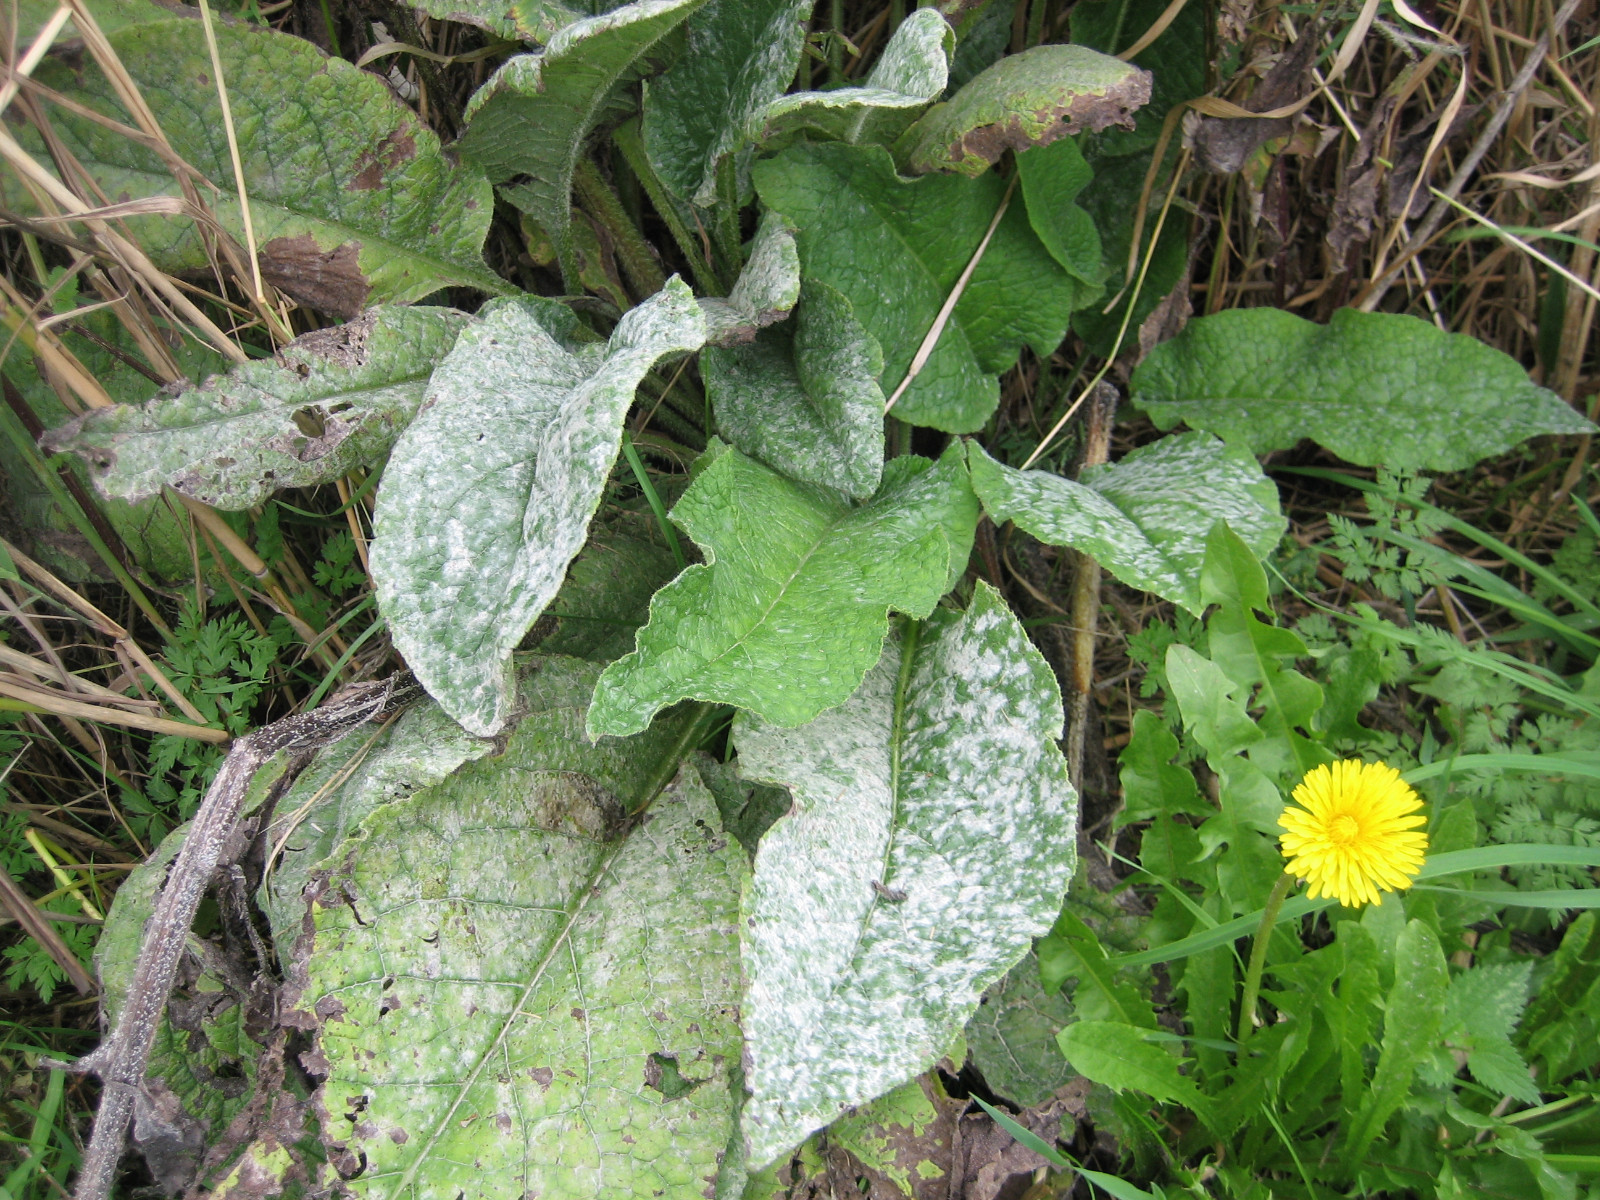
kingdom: Fungi
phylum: Ascomycota
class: Leotiomycetes
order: Helotiales
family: Erysiphaceae
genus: Golovinomyces
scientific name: Golovinomyces asperifoliorum
